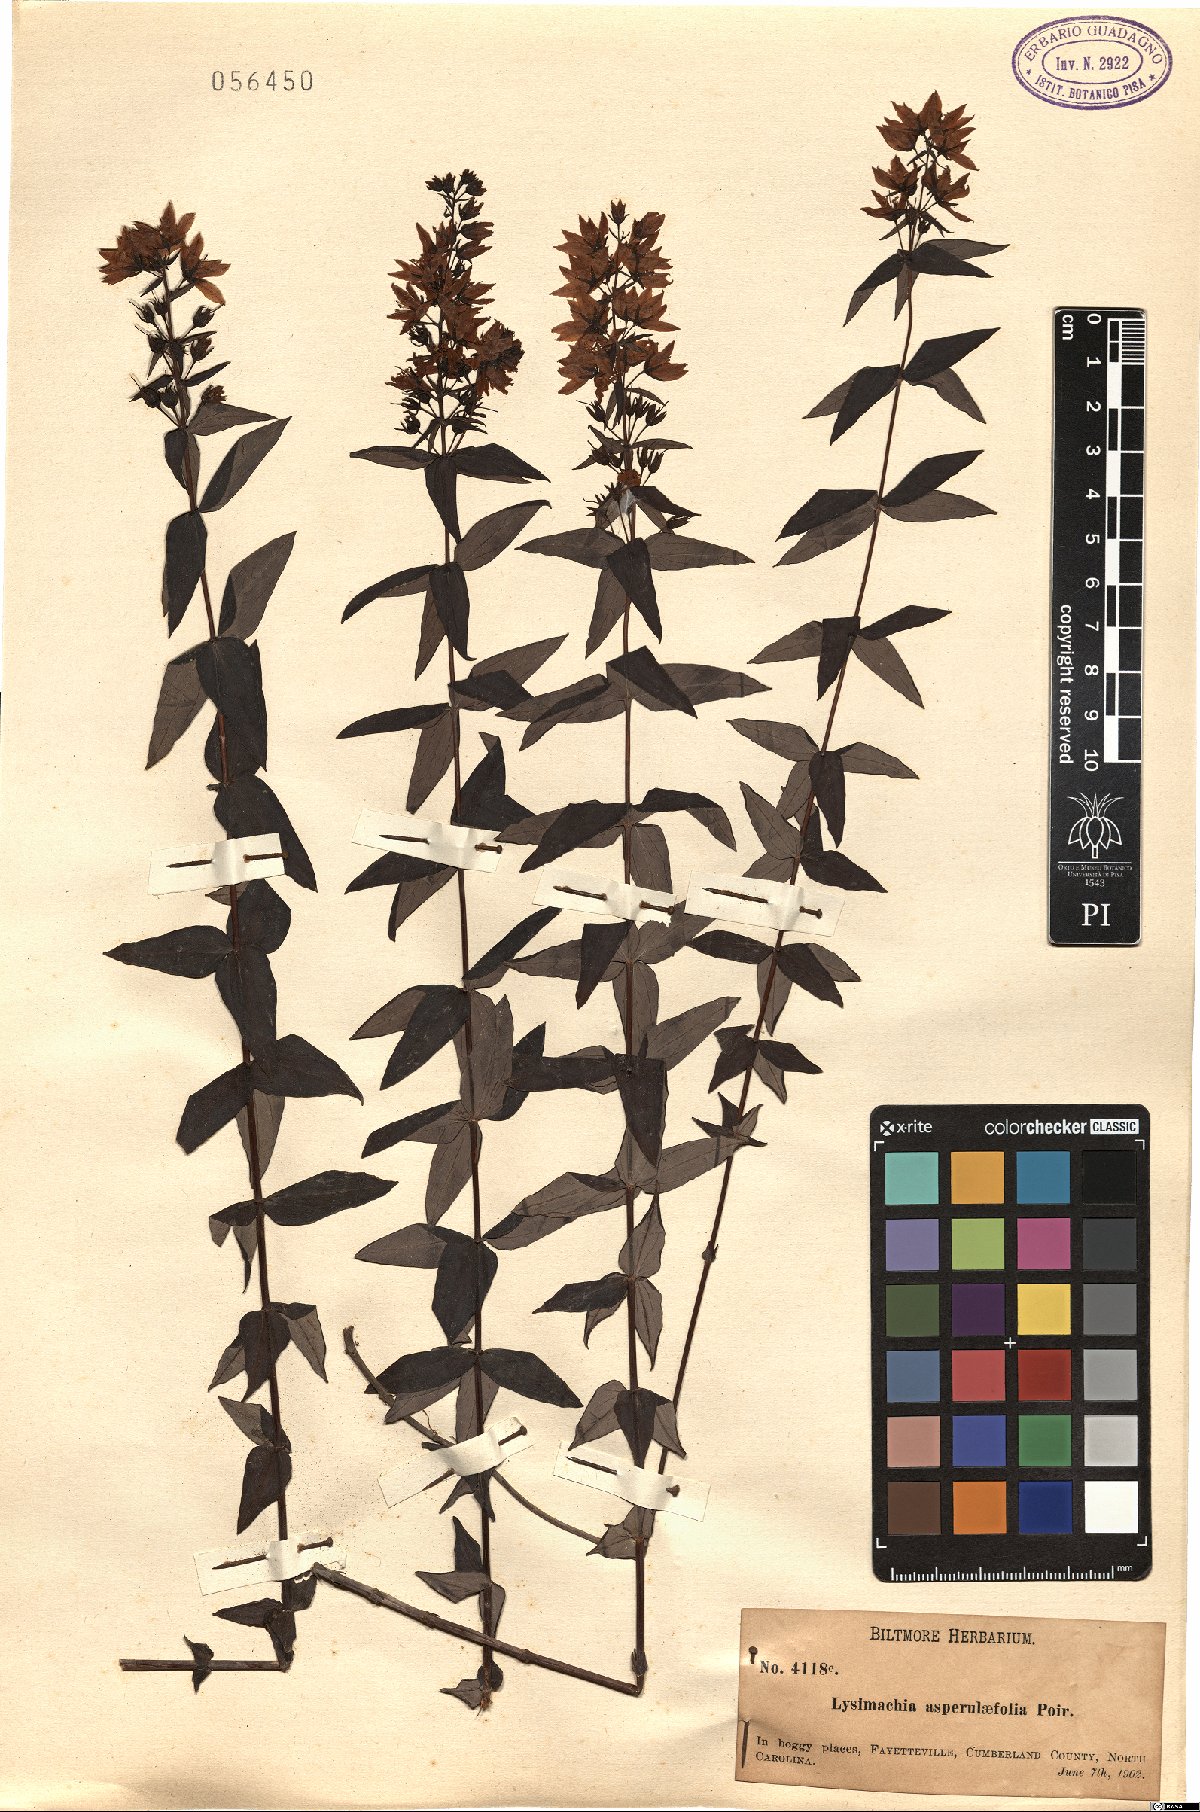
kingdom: Plantae
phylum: Tracheophyta
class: Magnoliopsida
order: Ericales
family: Primulaceae
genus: Lysimachia
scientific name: Lysimachia asperulifolia
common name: Rough-leaf loosestrife
